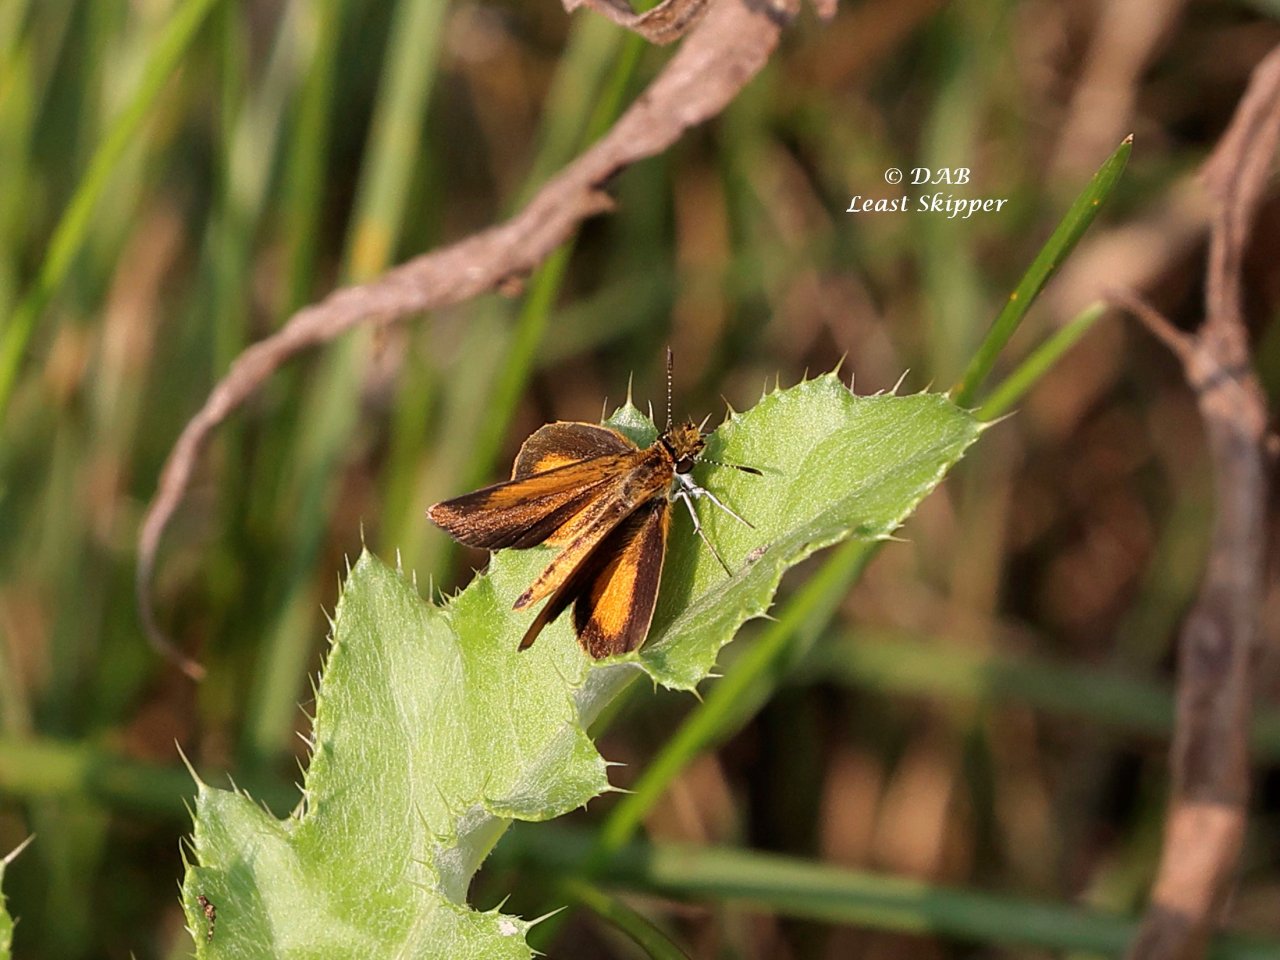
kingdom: Animalia
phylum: Arthropoda
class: Insecta
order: Lepidoptera
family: Hesperiidae
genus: Ancyloxypha
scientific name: Ancyloxypha numitor
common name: Least Skipper
